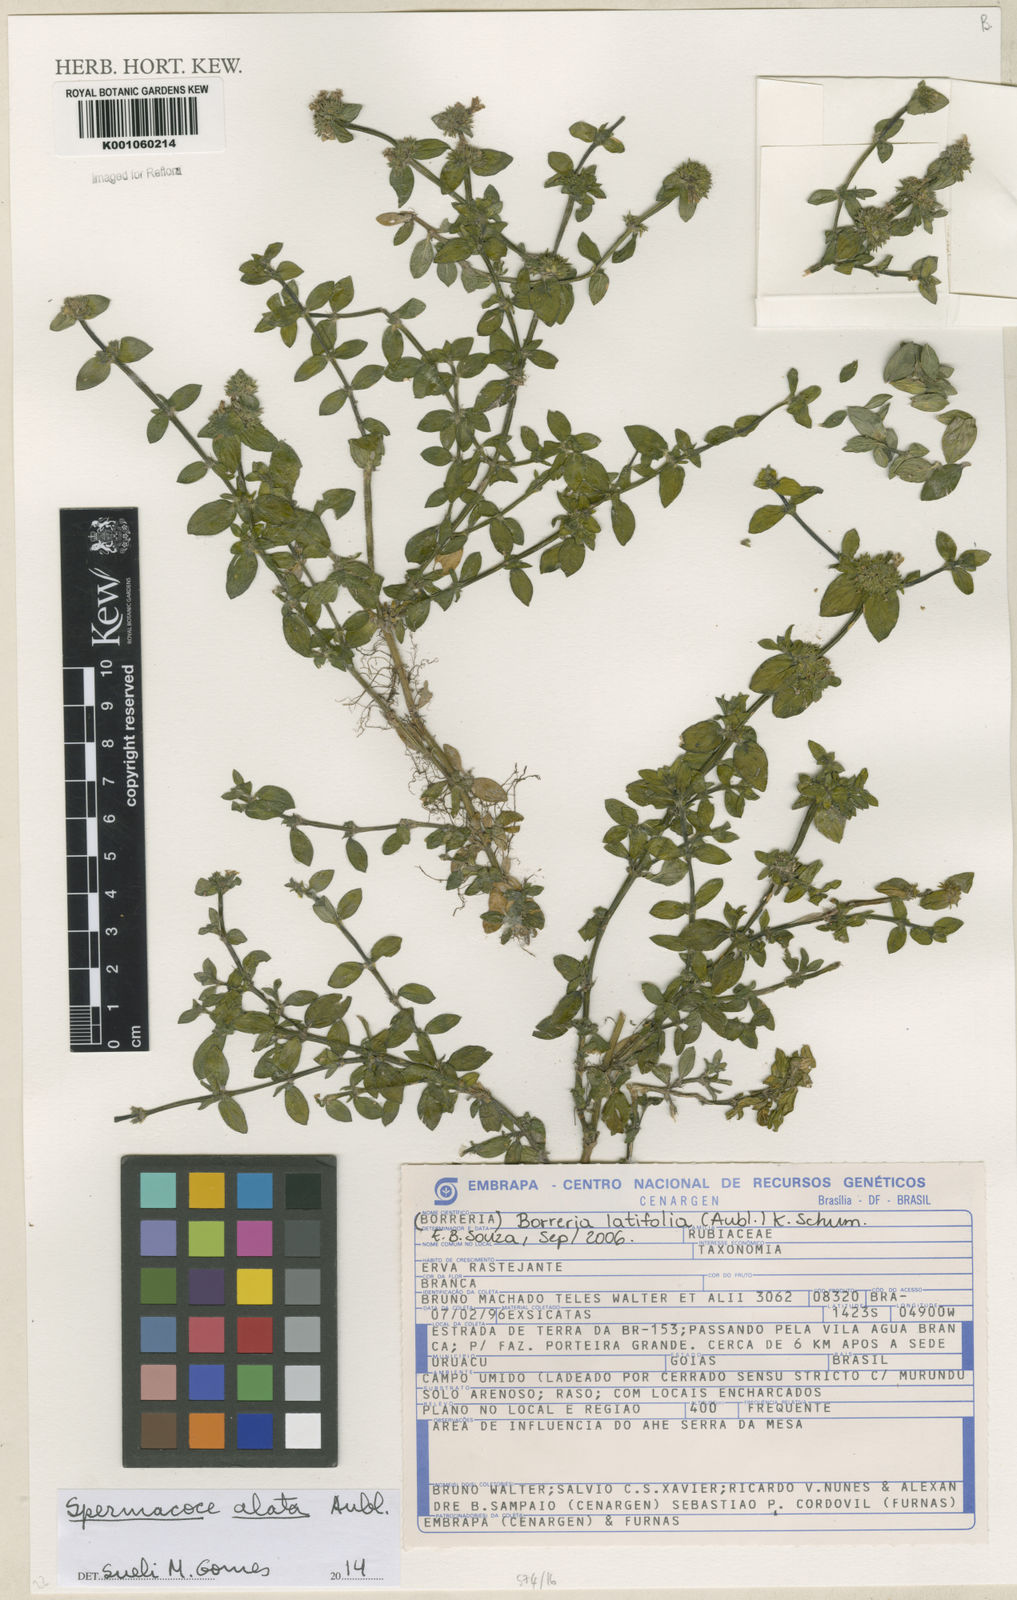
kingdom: Plantae
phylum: Tracheophyta
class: Magnoliopsida
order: Gentianales
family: Rubiaceae
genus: Spermacoce
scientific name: Spermacoce
